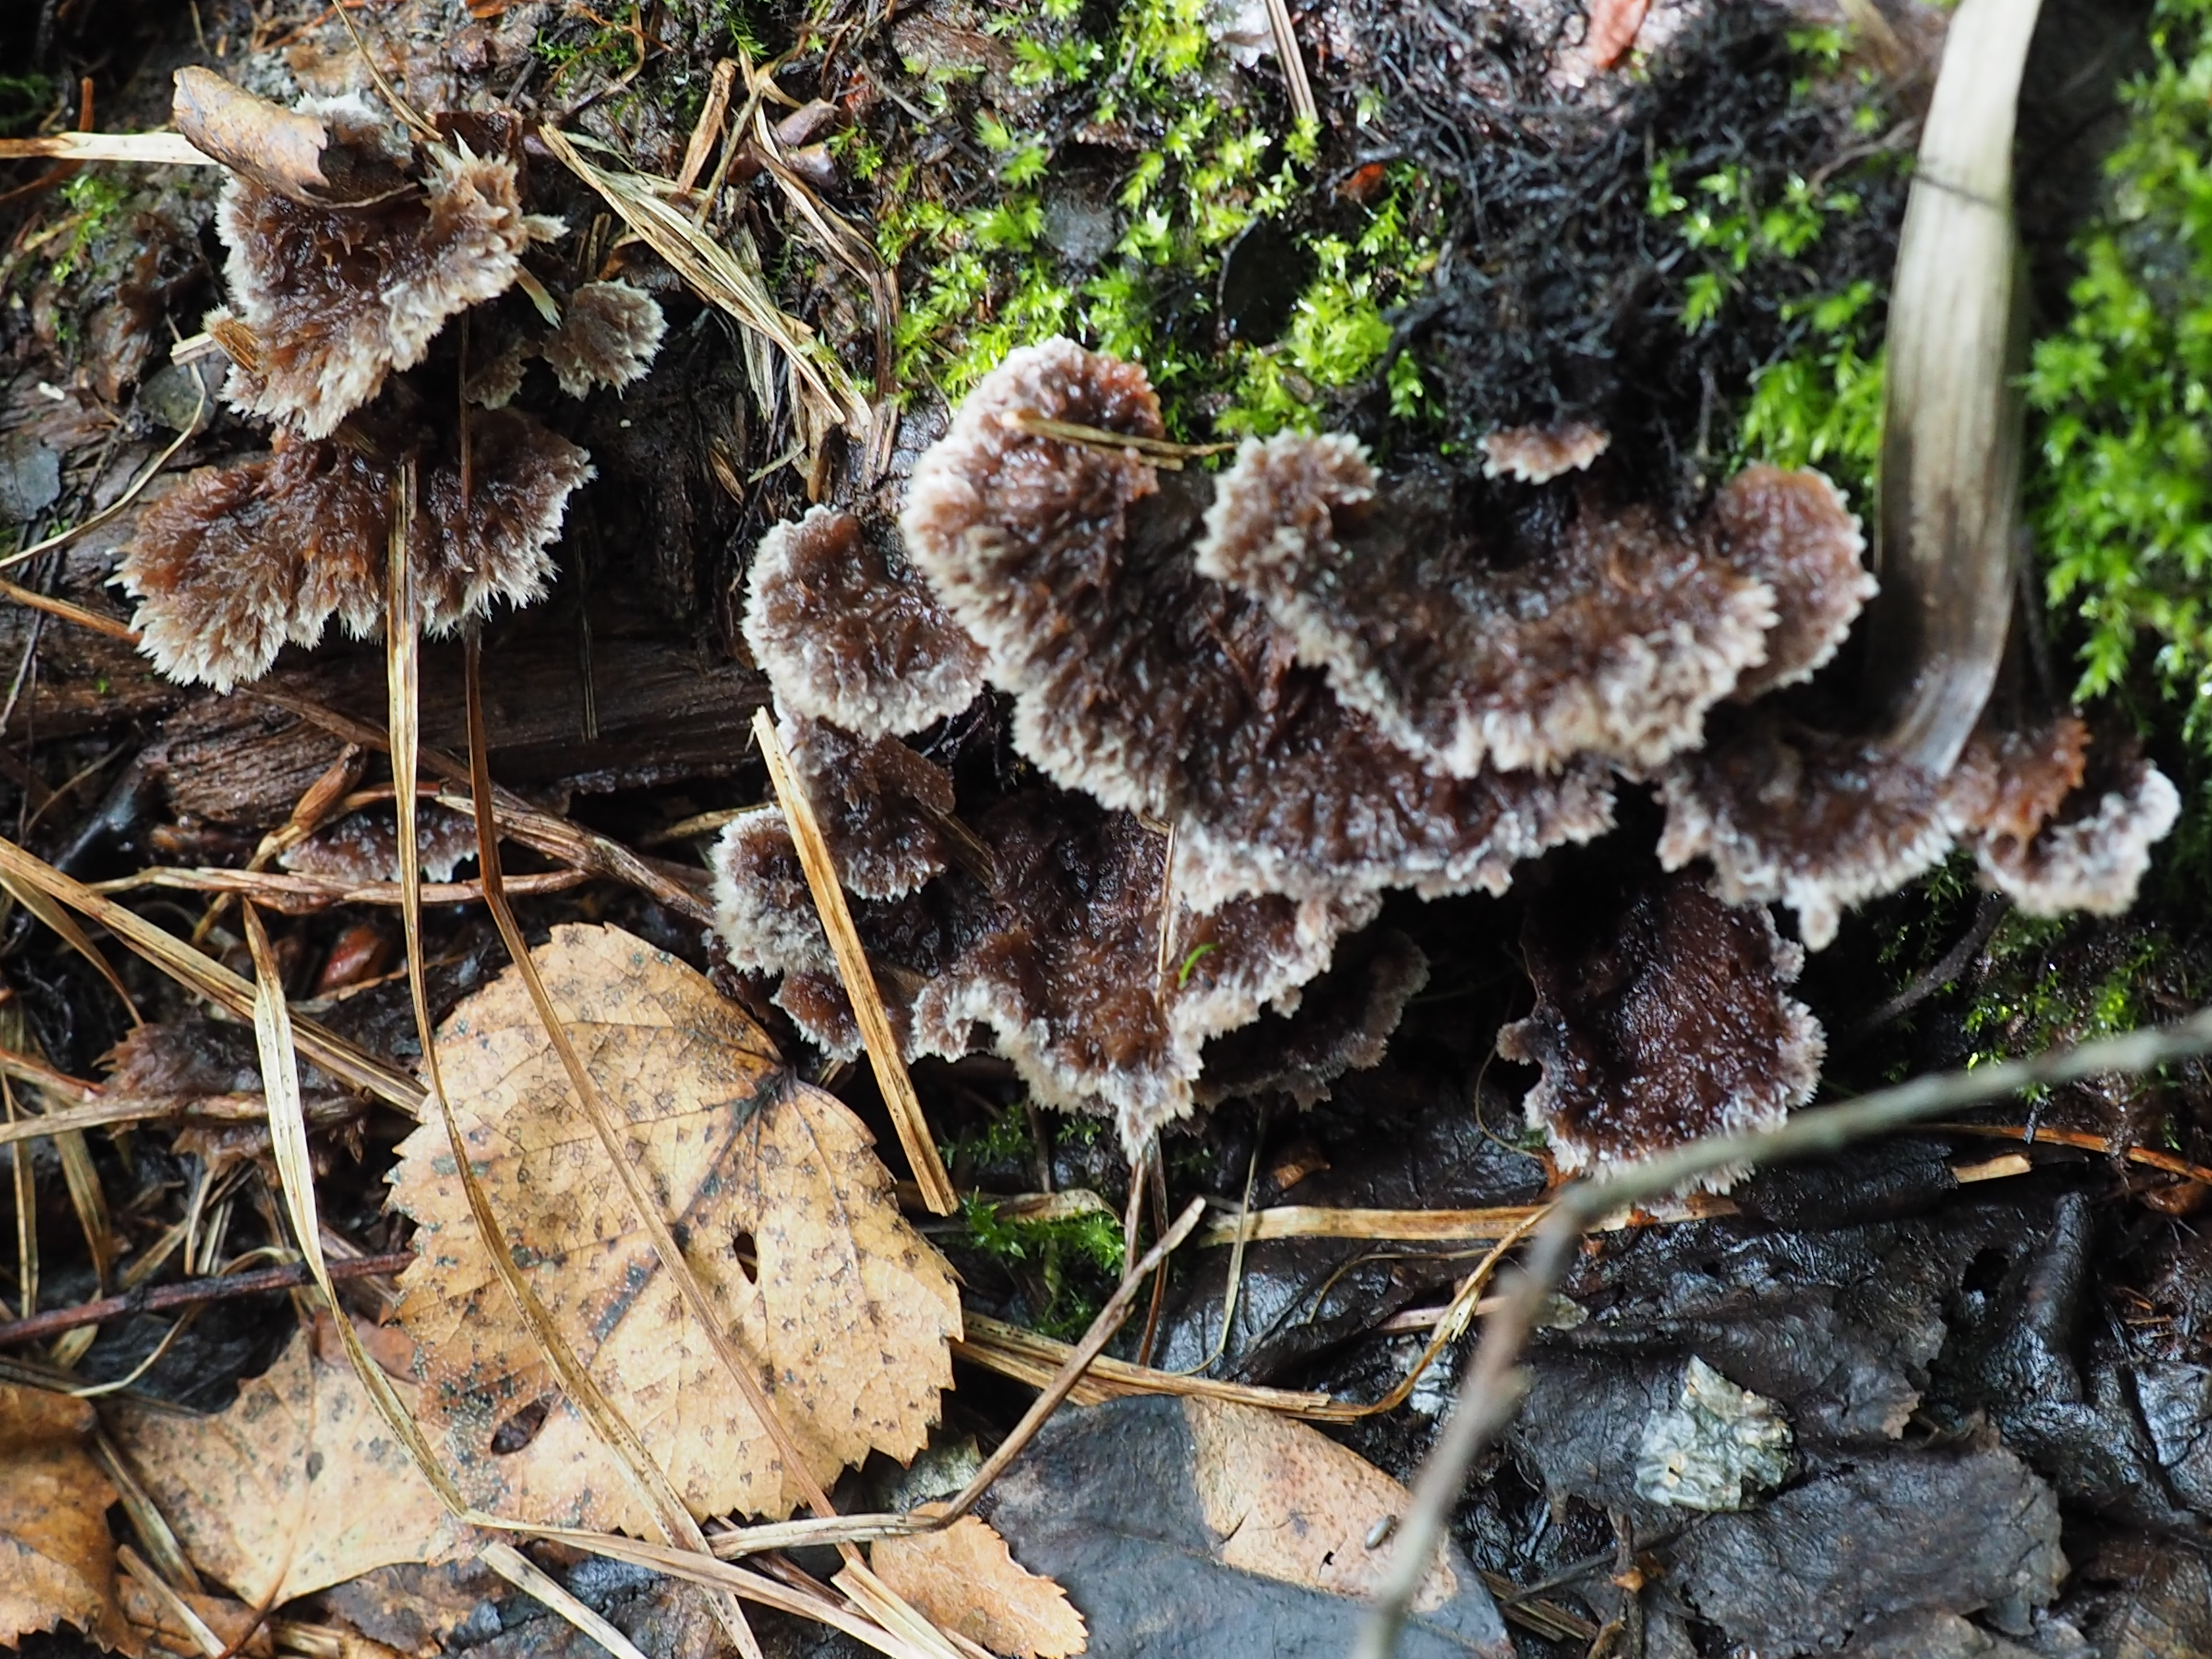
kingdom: Fungi
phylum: Basidiomycota
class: Agaricomycetes
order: Thelephorales
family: Thelephoraceae
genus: Thelephora
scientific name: Thelephora terrestris
